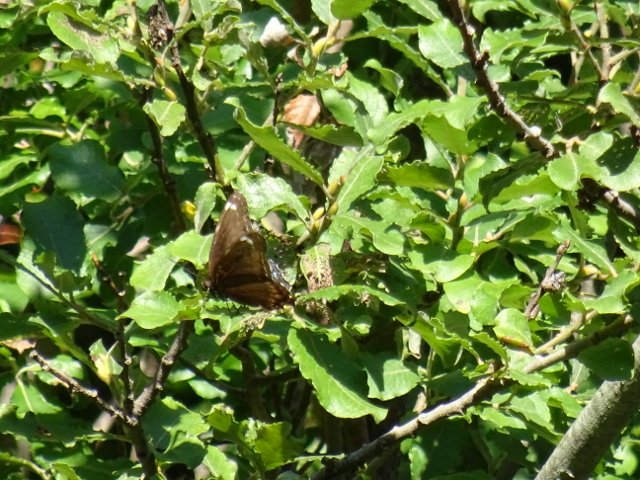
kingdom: Animalia
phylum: Arthropoda
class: Insecta
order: Lepidoptera
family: Nymphalidae
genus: Limenitis
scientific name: Limenitis astyanax
